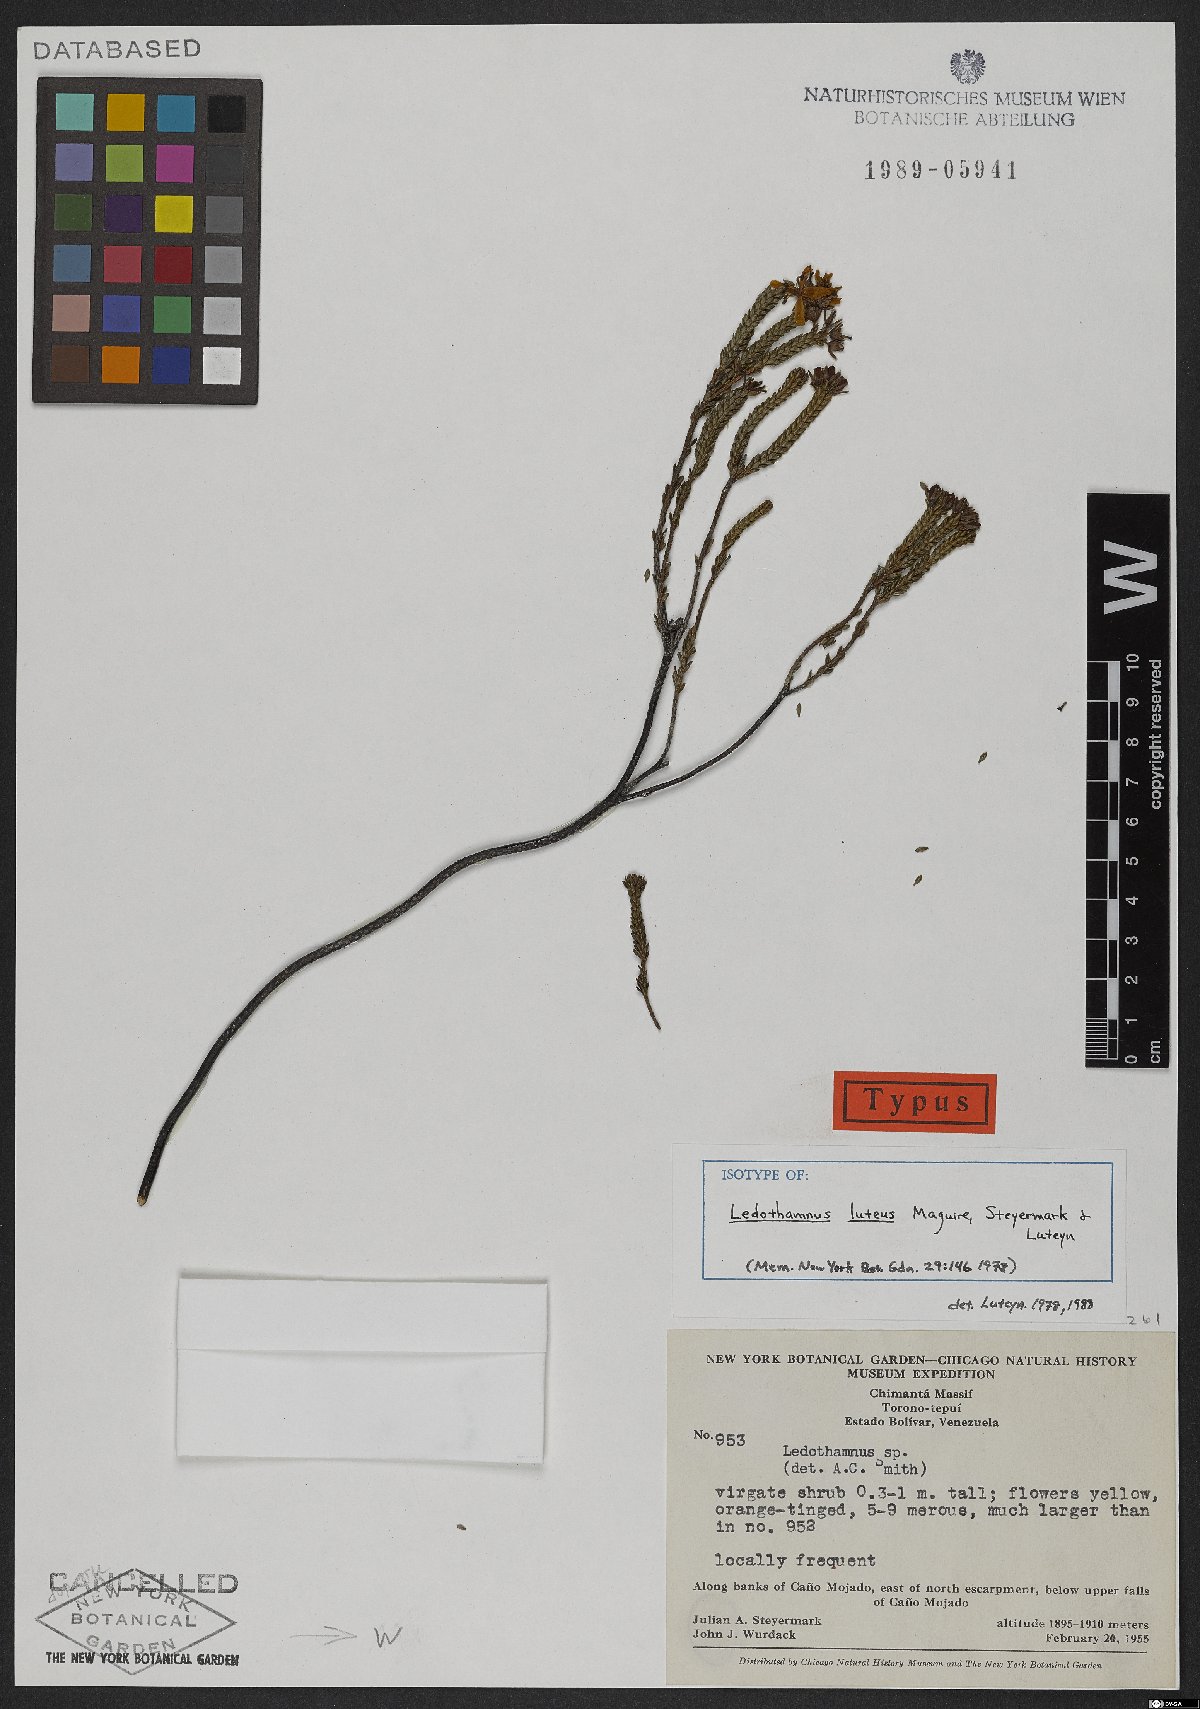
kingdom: Plantae
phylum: Tracheophyta
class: Magnoliopsida
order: Ericales
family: Ericaceae
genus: Ledothamnus
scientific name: Ledothamnus luteus
